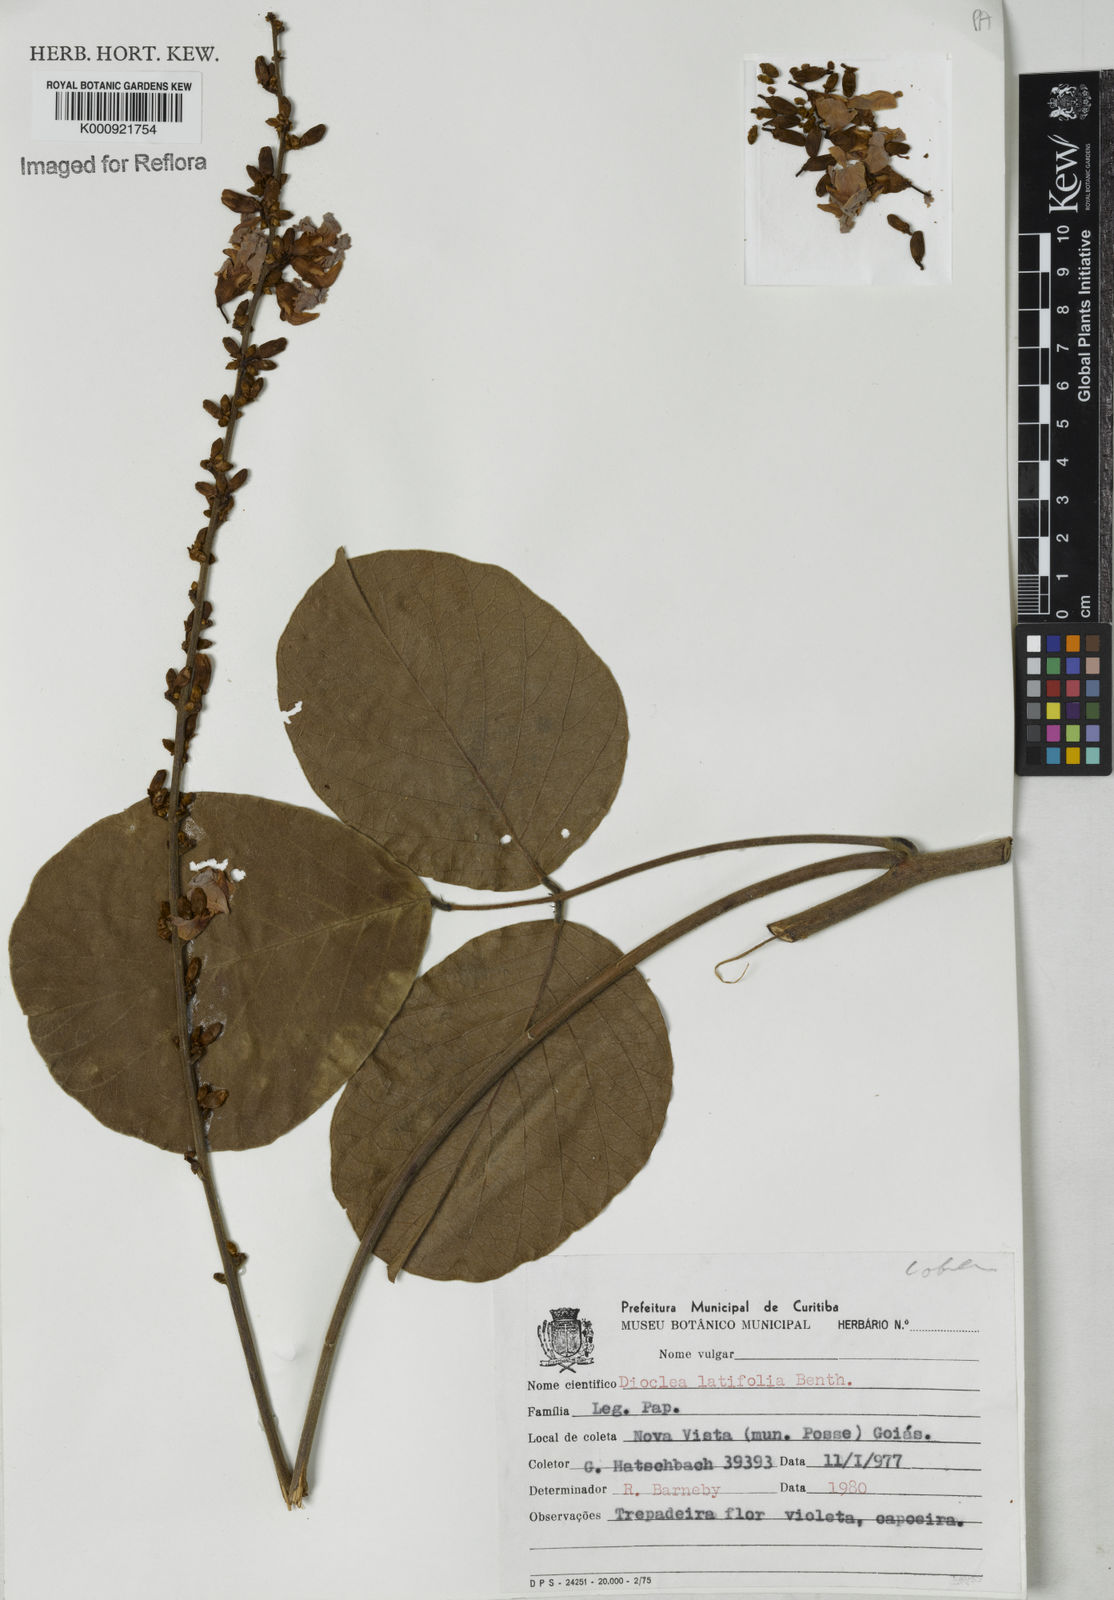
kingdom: Plantae
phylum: Tracheophyta
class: Magnoliopsida
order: Fabales
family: Fabaceae
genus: Macropsychanthus
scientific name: Macropsychanthus latifolius
